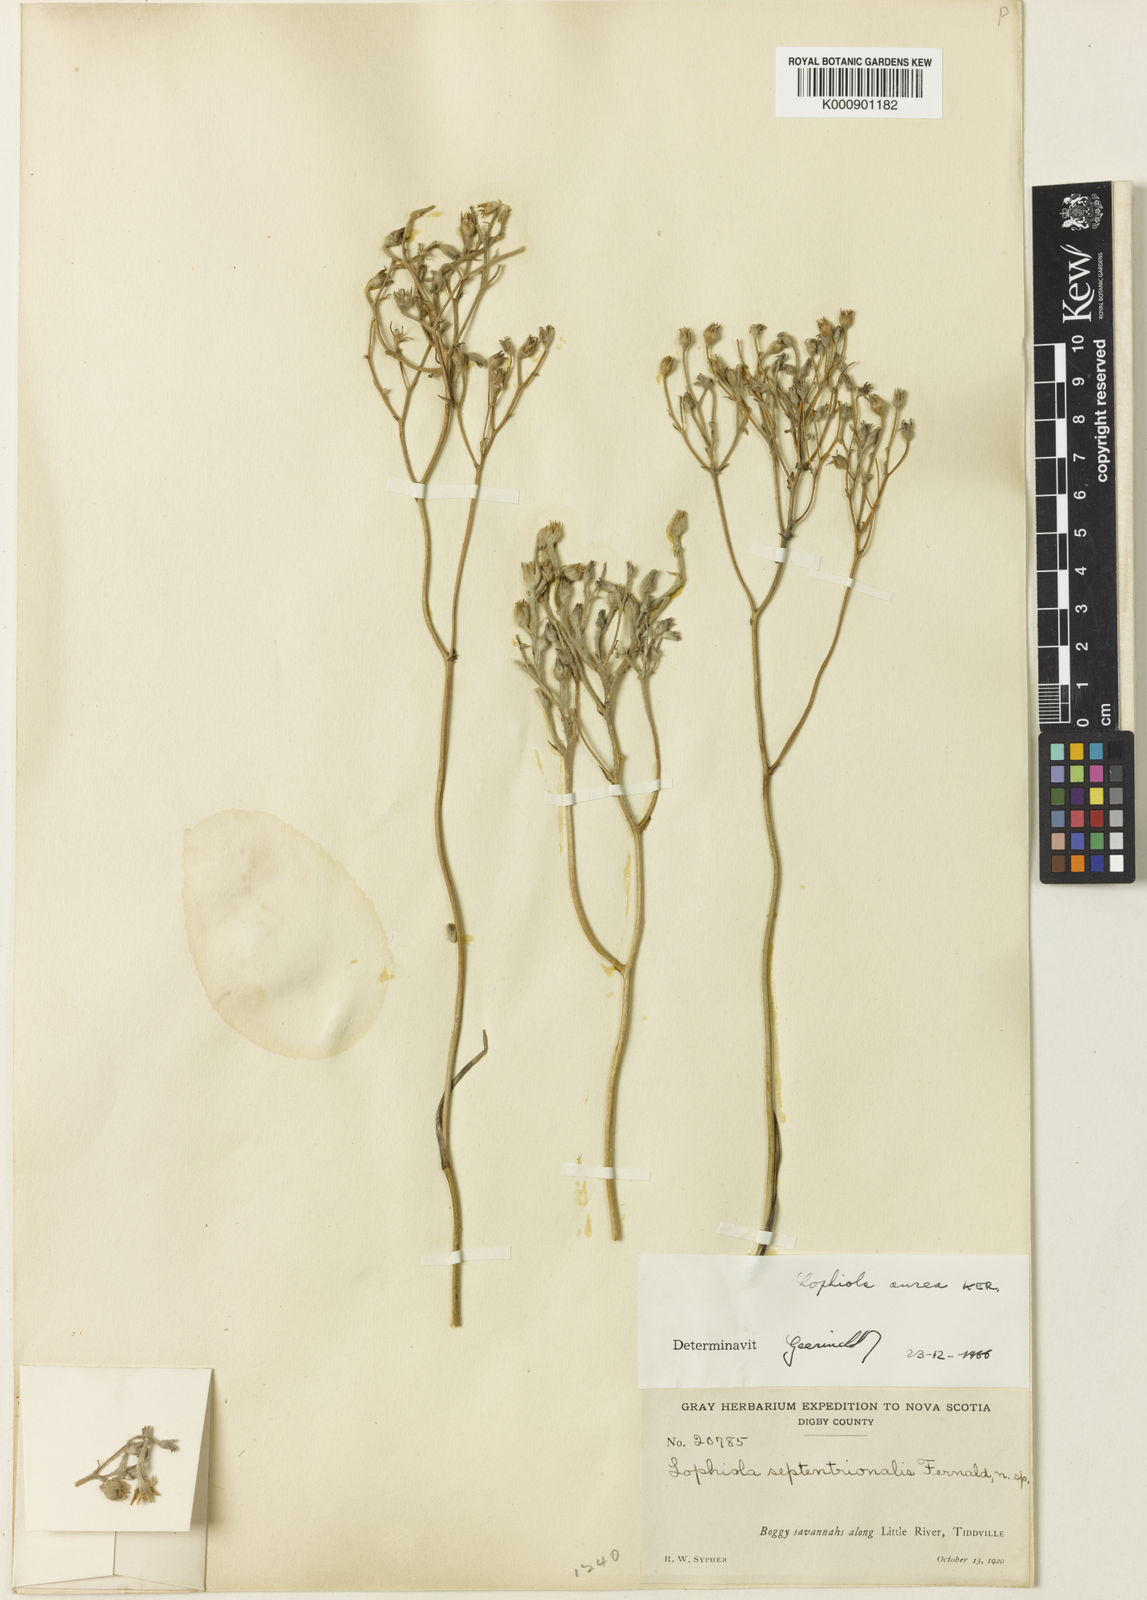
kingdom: Plantae
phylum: Tracheophyta
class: Liliopsida
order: Dioscoreales
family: Nartheciaceae
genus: Lophiola
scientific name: Lophiola aurea
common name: Golden-crest
